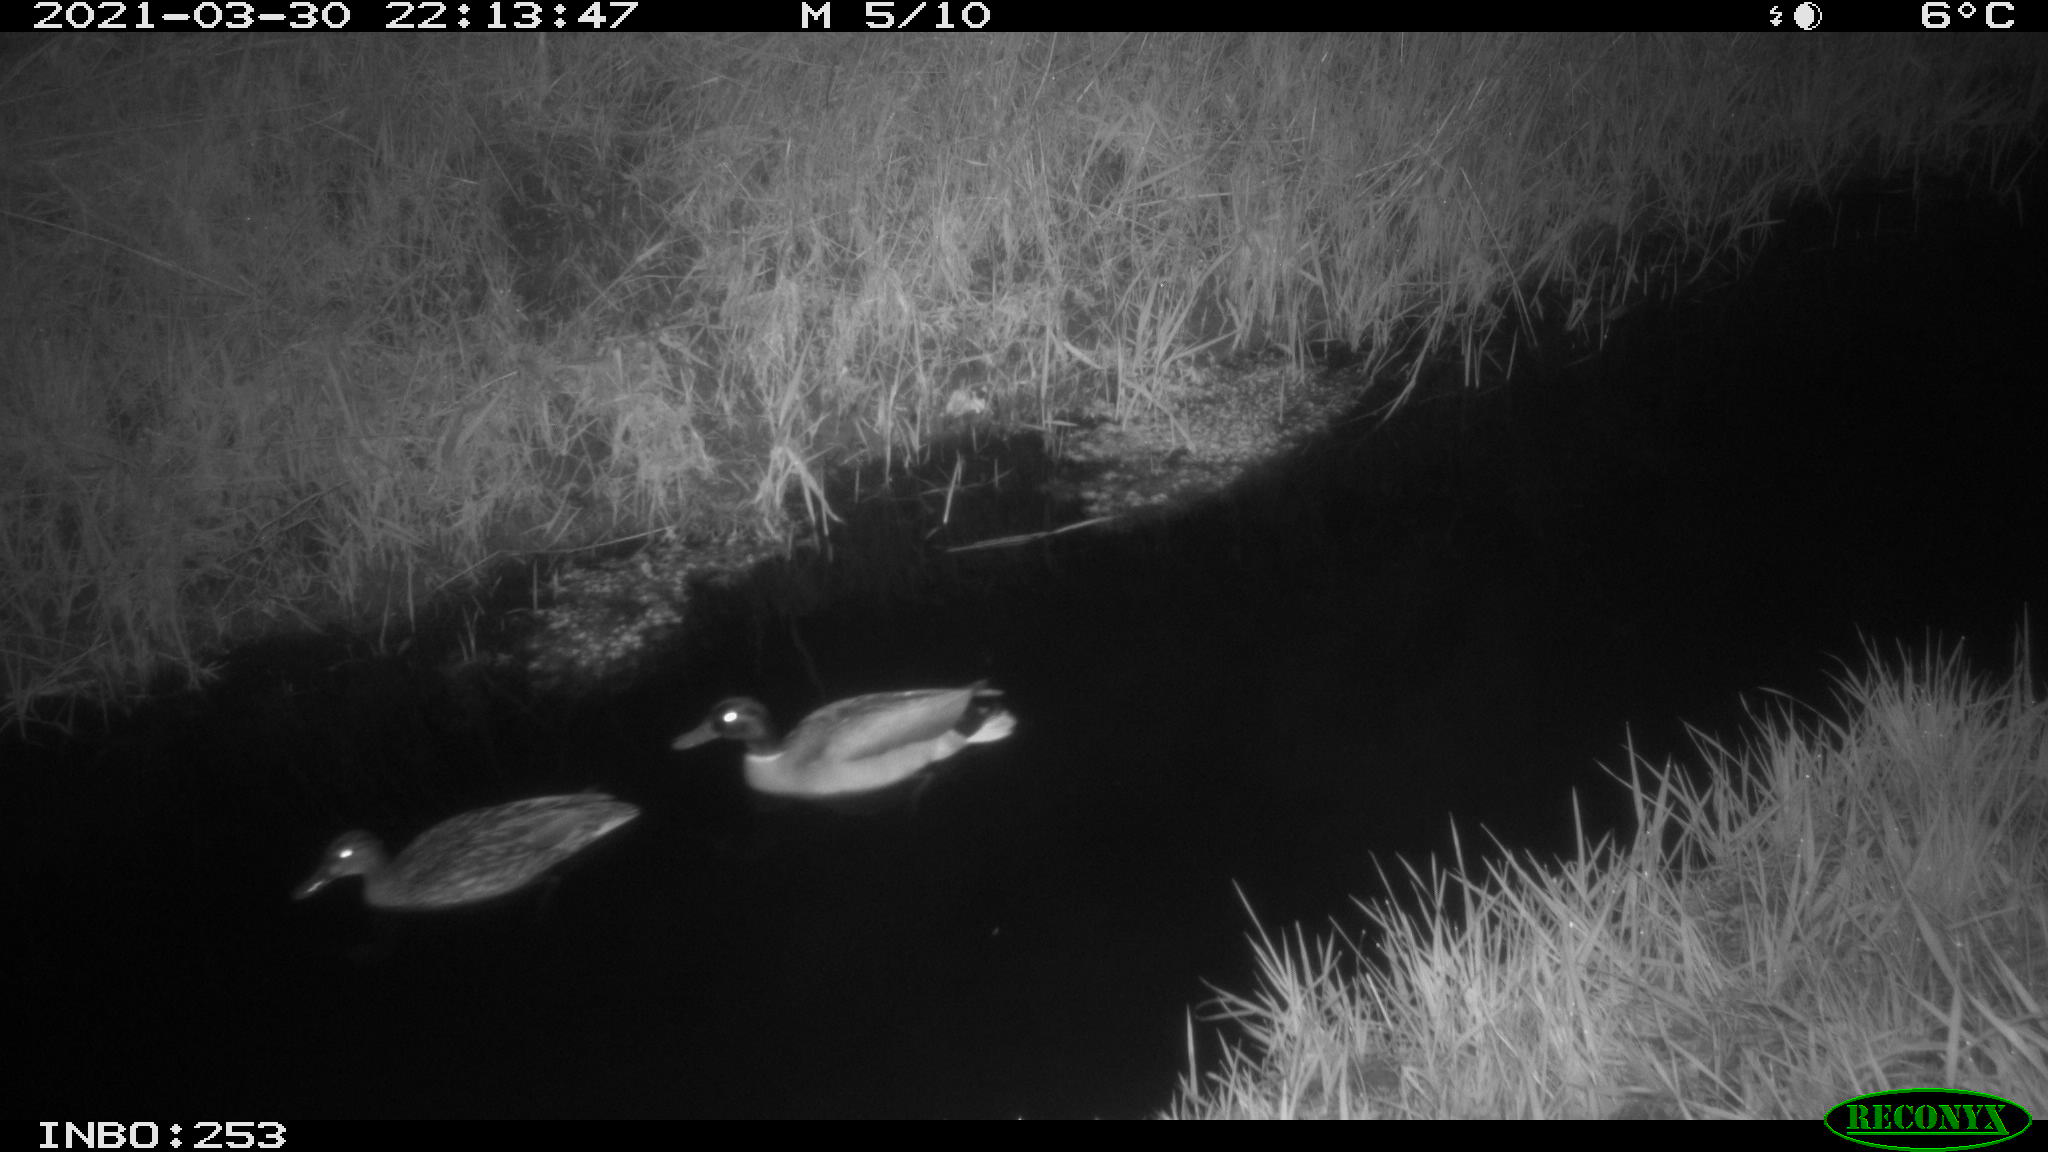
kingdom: Animalia
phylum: Chordata
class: Aves
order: Anseriformes
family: Anatidae
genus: Anas
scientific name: Anas platyrhynchos
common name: Mallard
